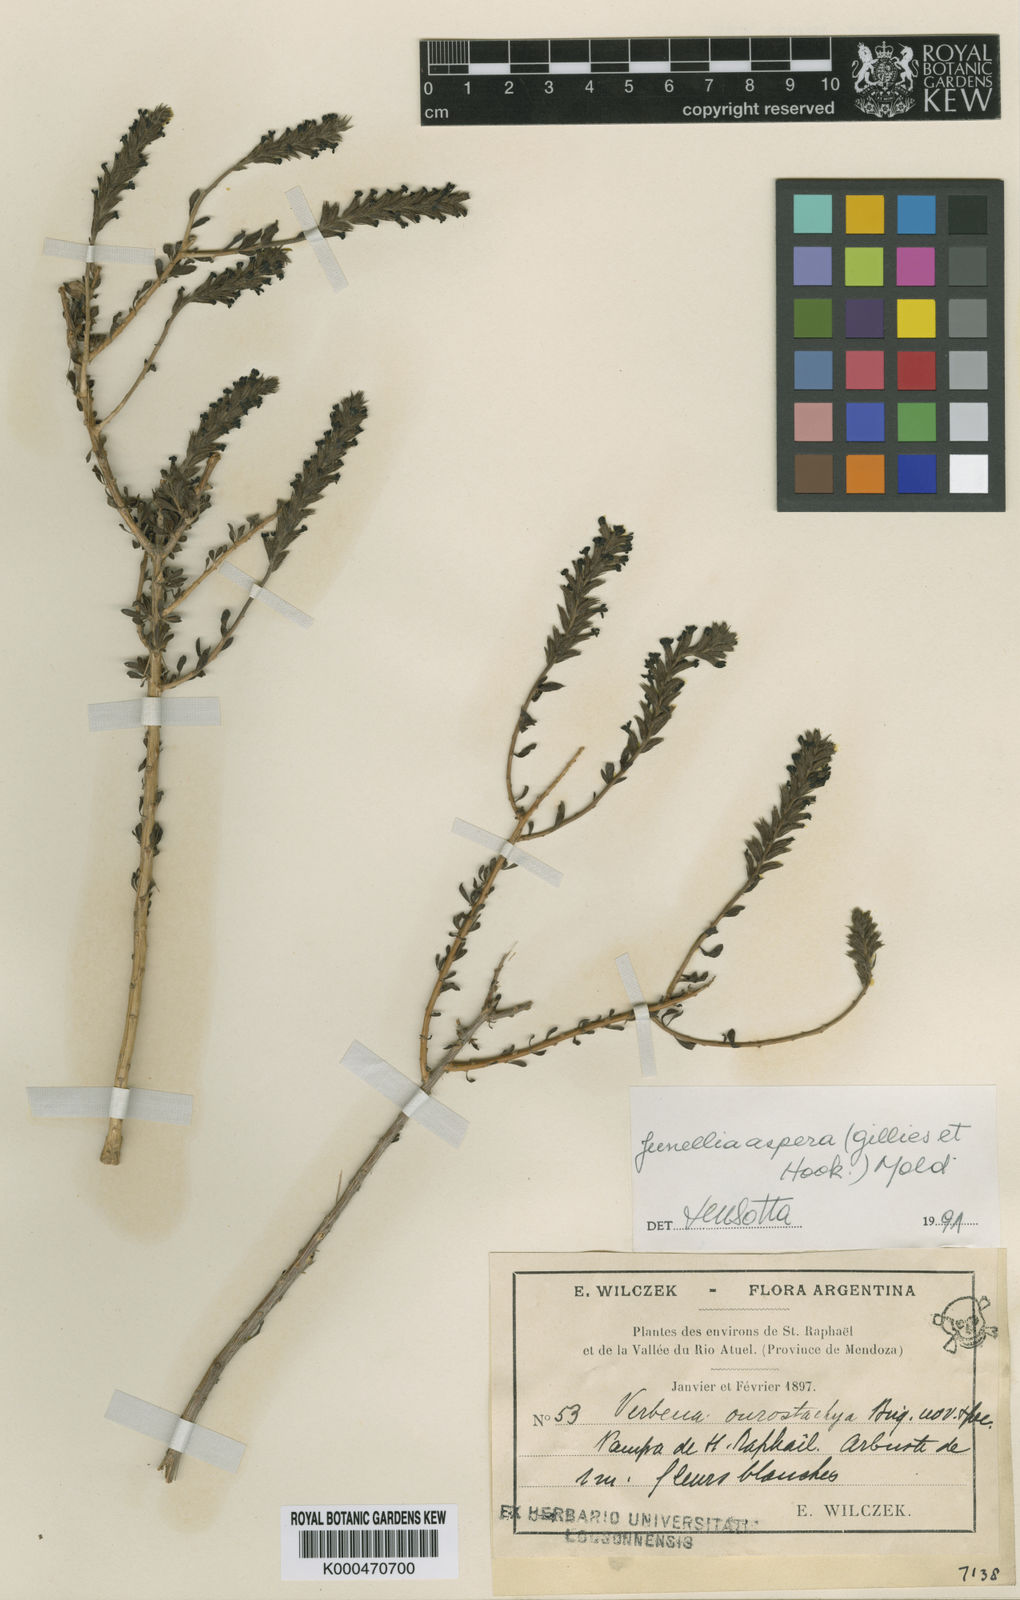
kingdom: Plantae
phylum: Tracheophyta
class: Magnoliopsida
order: Lamiales
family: Verbenaceae
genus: Mulguraea
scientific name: Mulguraea asparagoides
